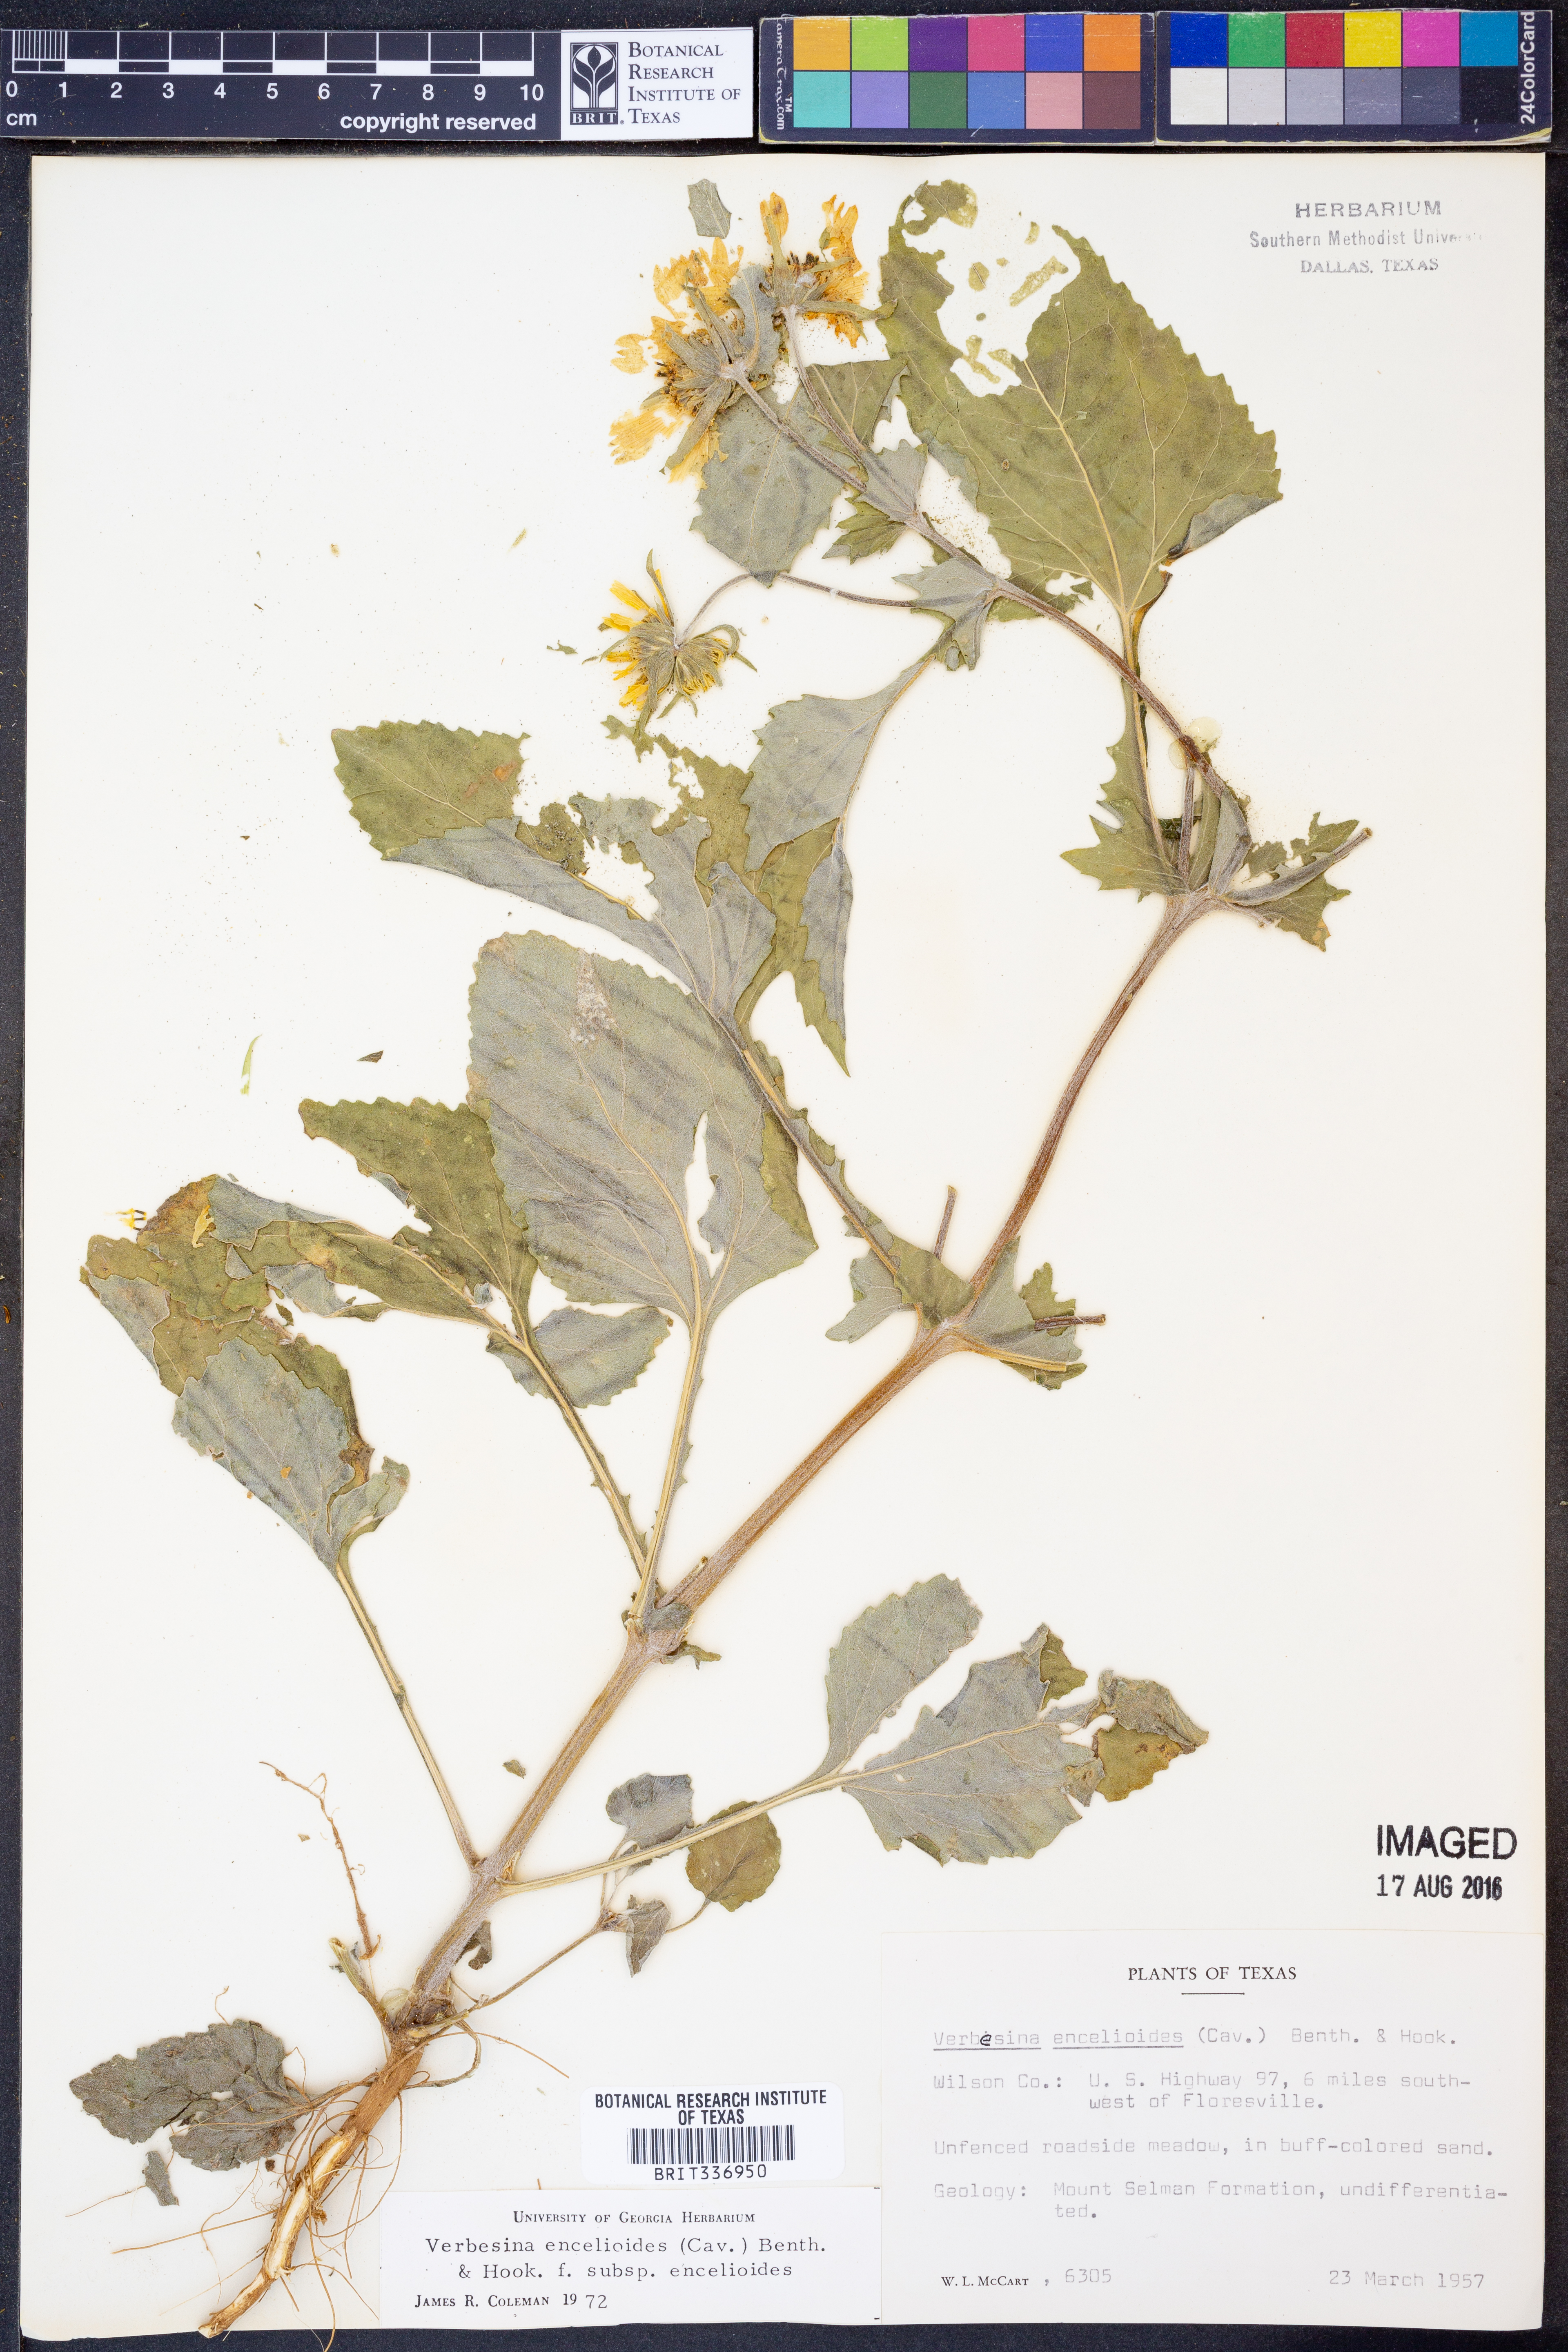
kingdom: Plantae
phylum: Tracheophyta
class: Magnoliopsida
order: Asterales
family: Asteraceae
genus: Verbesina
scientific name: Verbesina encelioides
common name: Golden crownbeard
